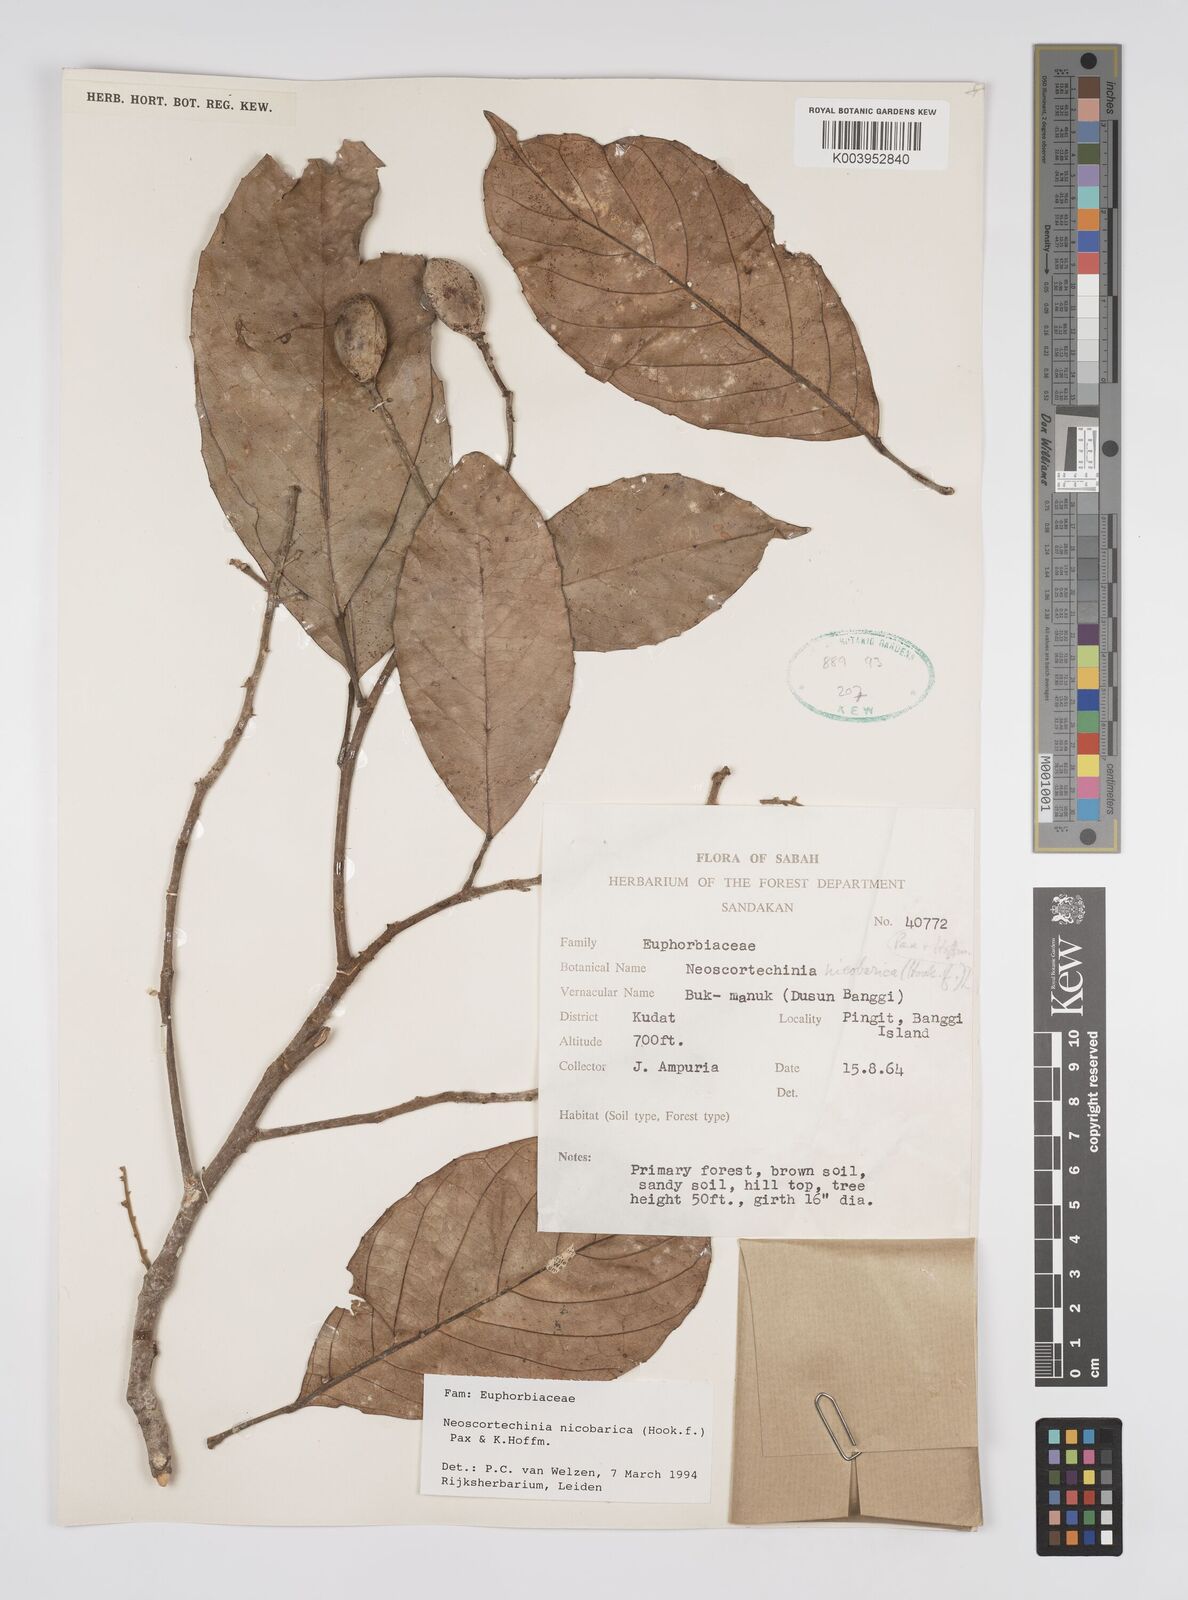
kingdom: Plantae
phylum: Tracheophyta
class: Magnoliopsida
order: Malpighiales
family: Euphorbiaceae
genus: Neoscortechinia
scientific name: Neoscortechinia nicobarica
